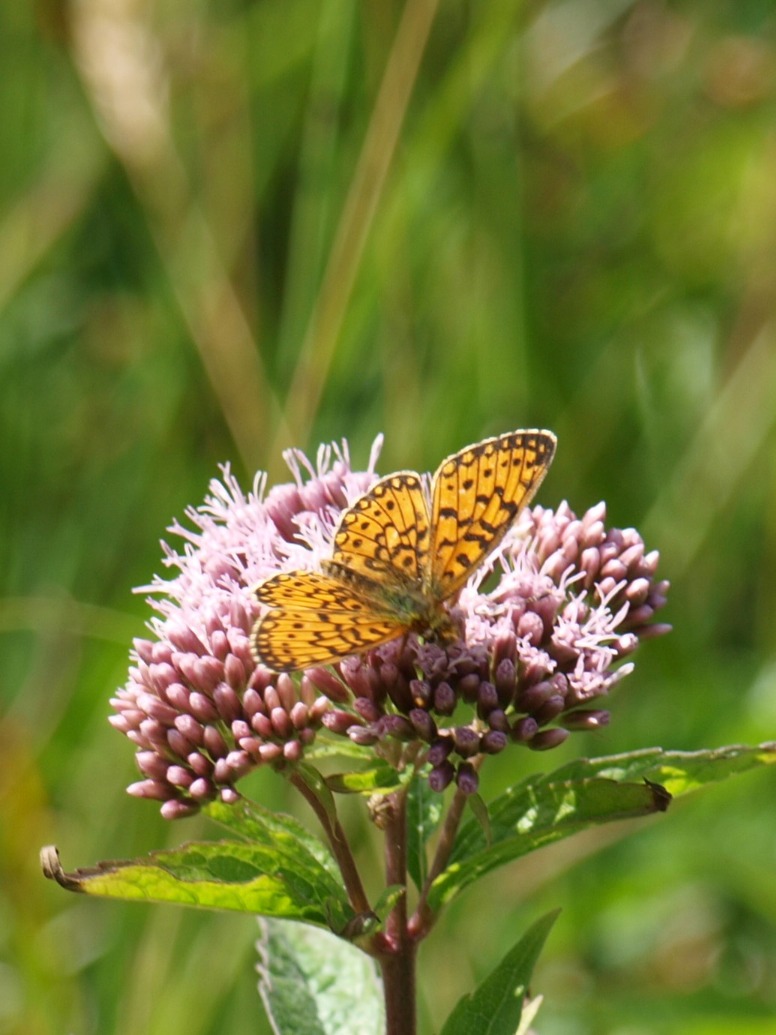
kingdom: Animalia
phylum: Arthropoda
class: Insecta
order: Lepidoptera
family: Nymphalidae
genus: Boloria
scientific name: Boloria selene
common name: Brunlig perlemorsommerfugl
